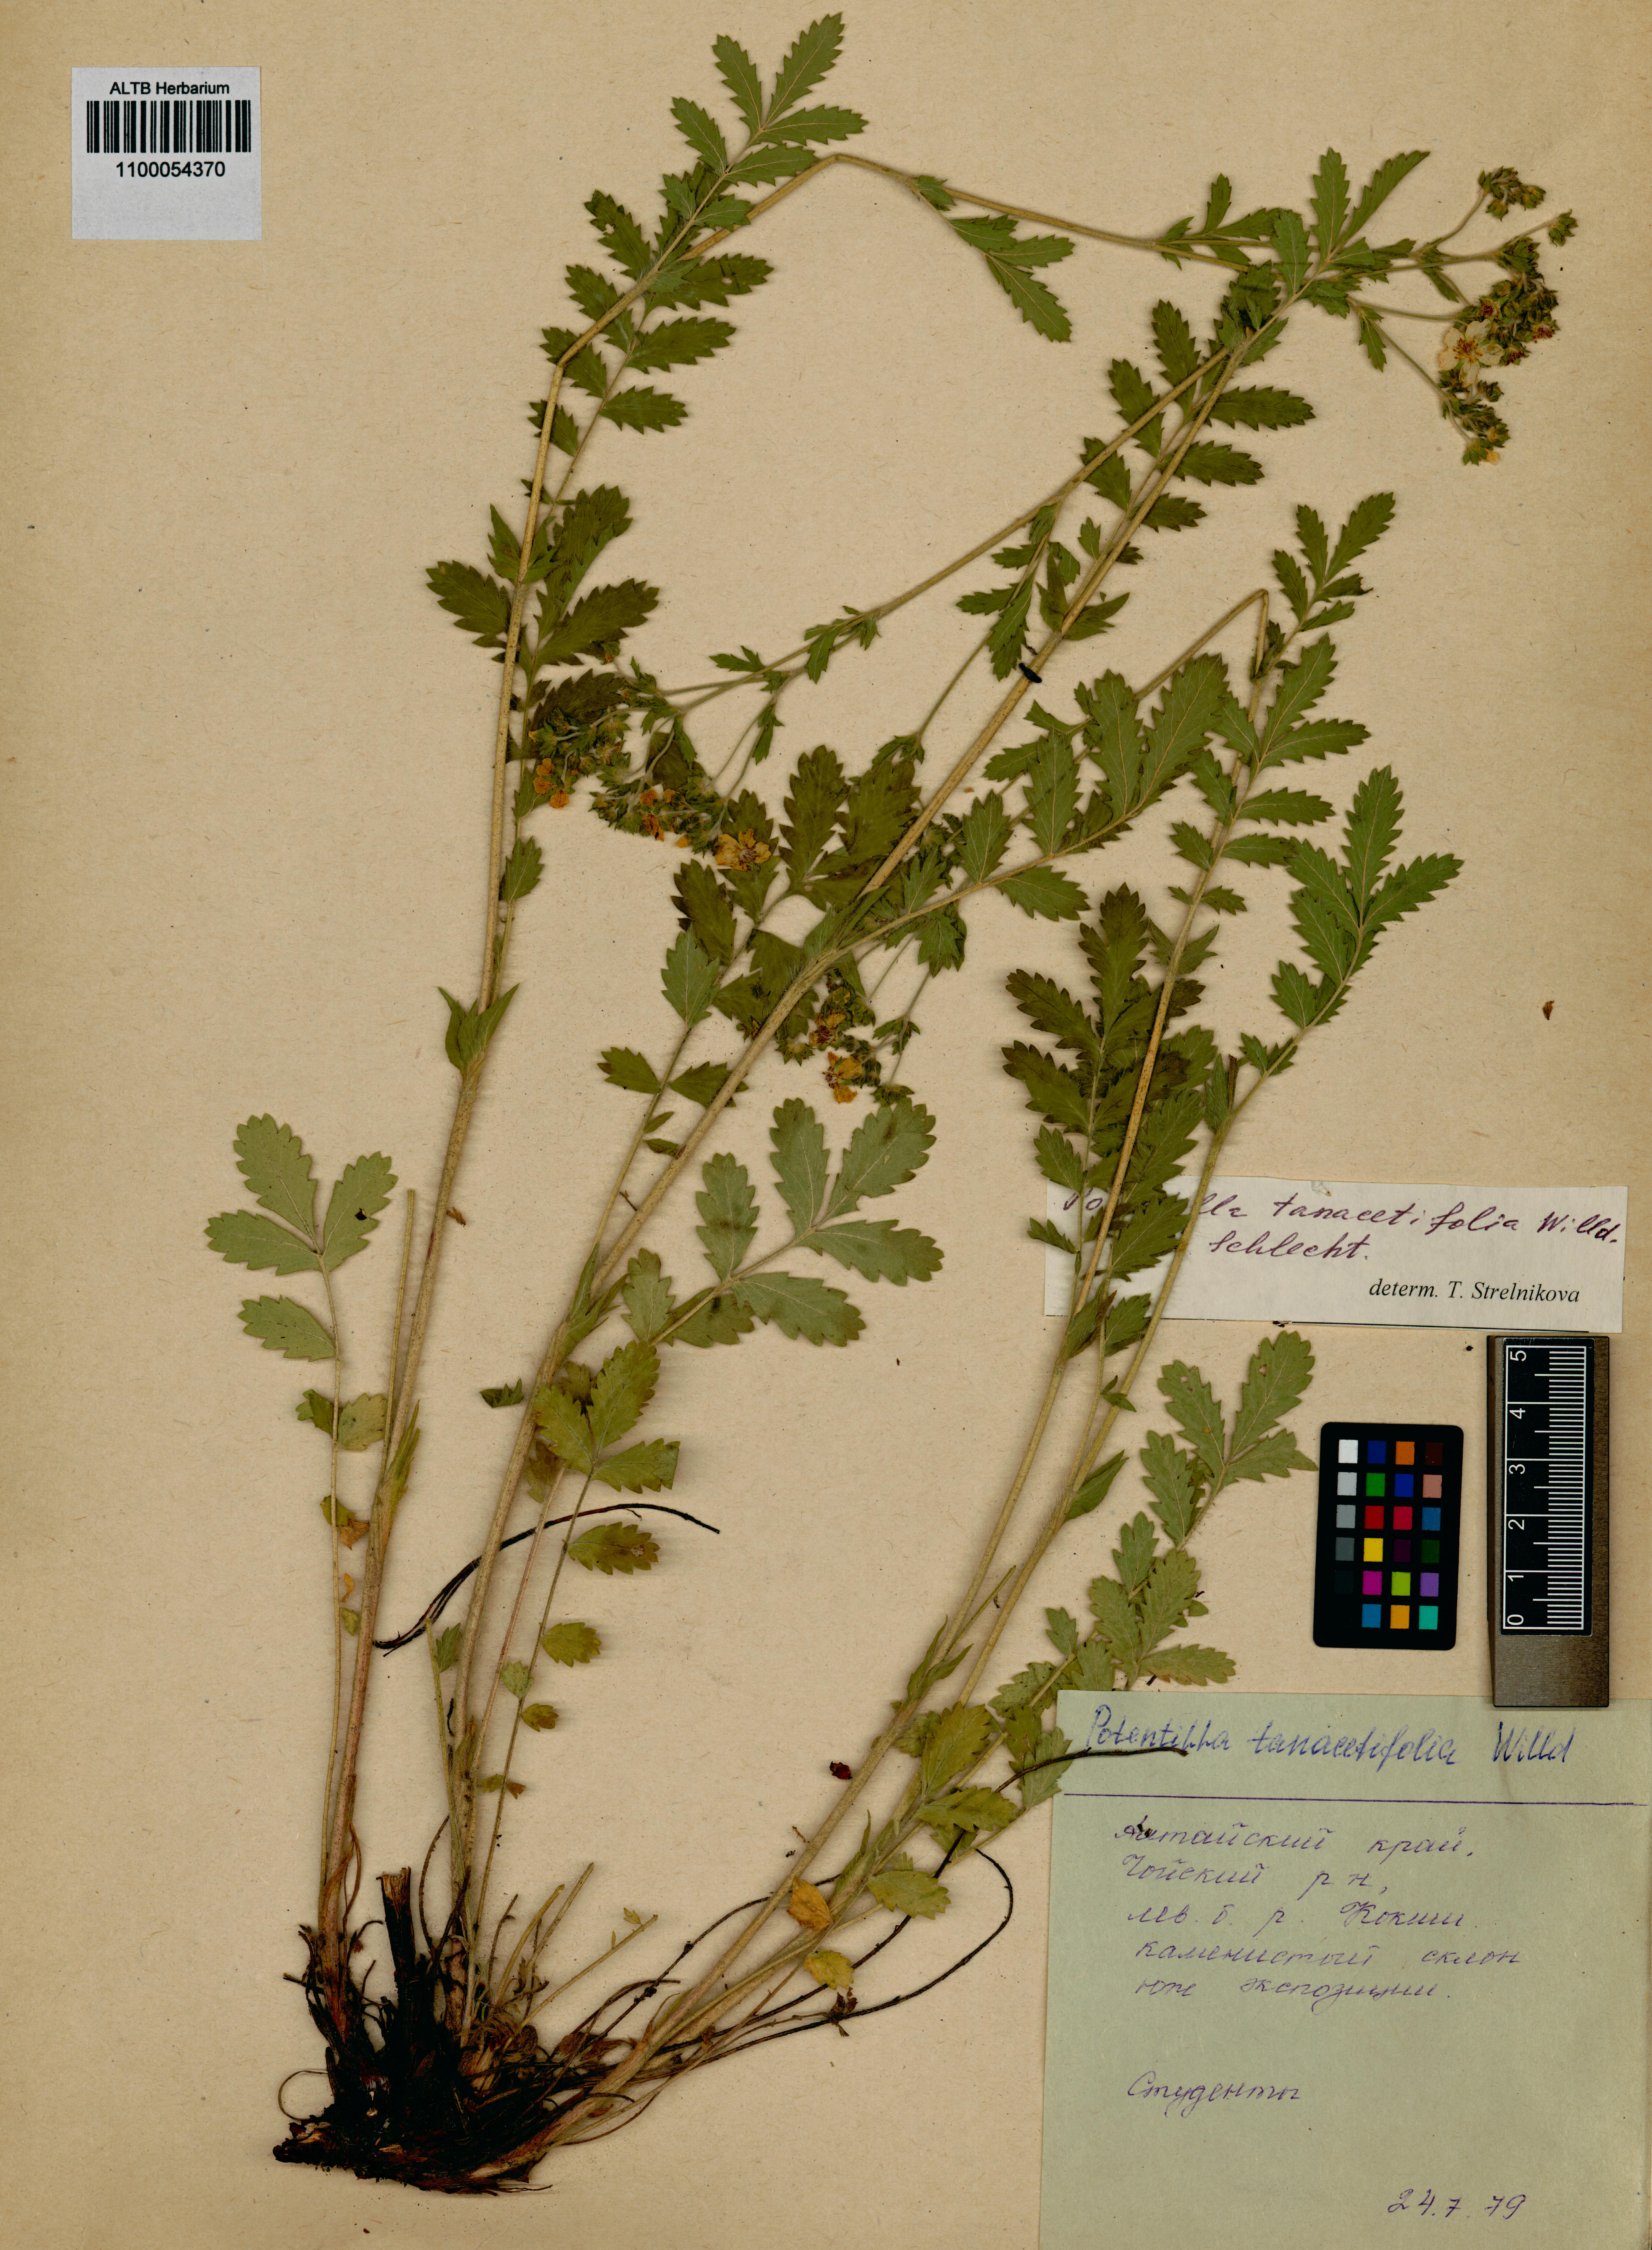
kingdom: Plantae
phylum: Tracheophyta
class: Magnoliopsida
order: Rosales
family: Rosaceae
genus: Potentilla
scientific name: Potentilla tanacetifolia
